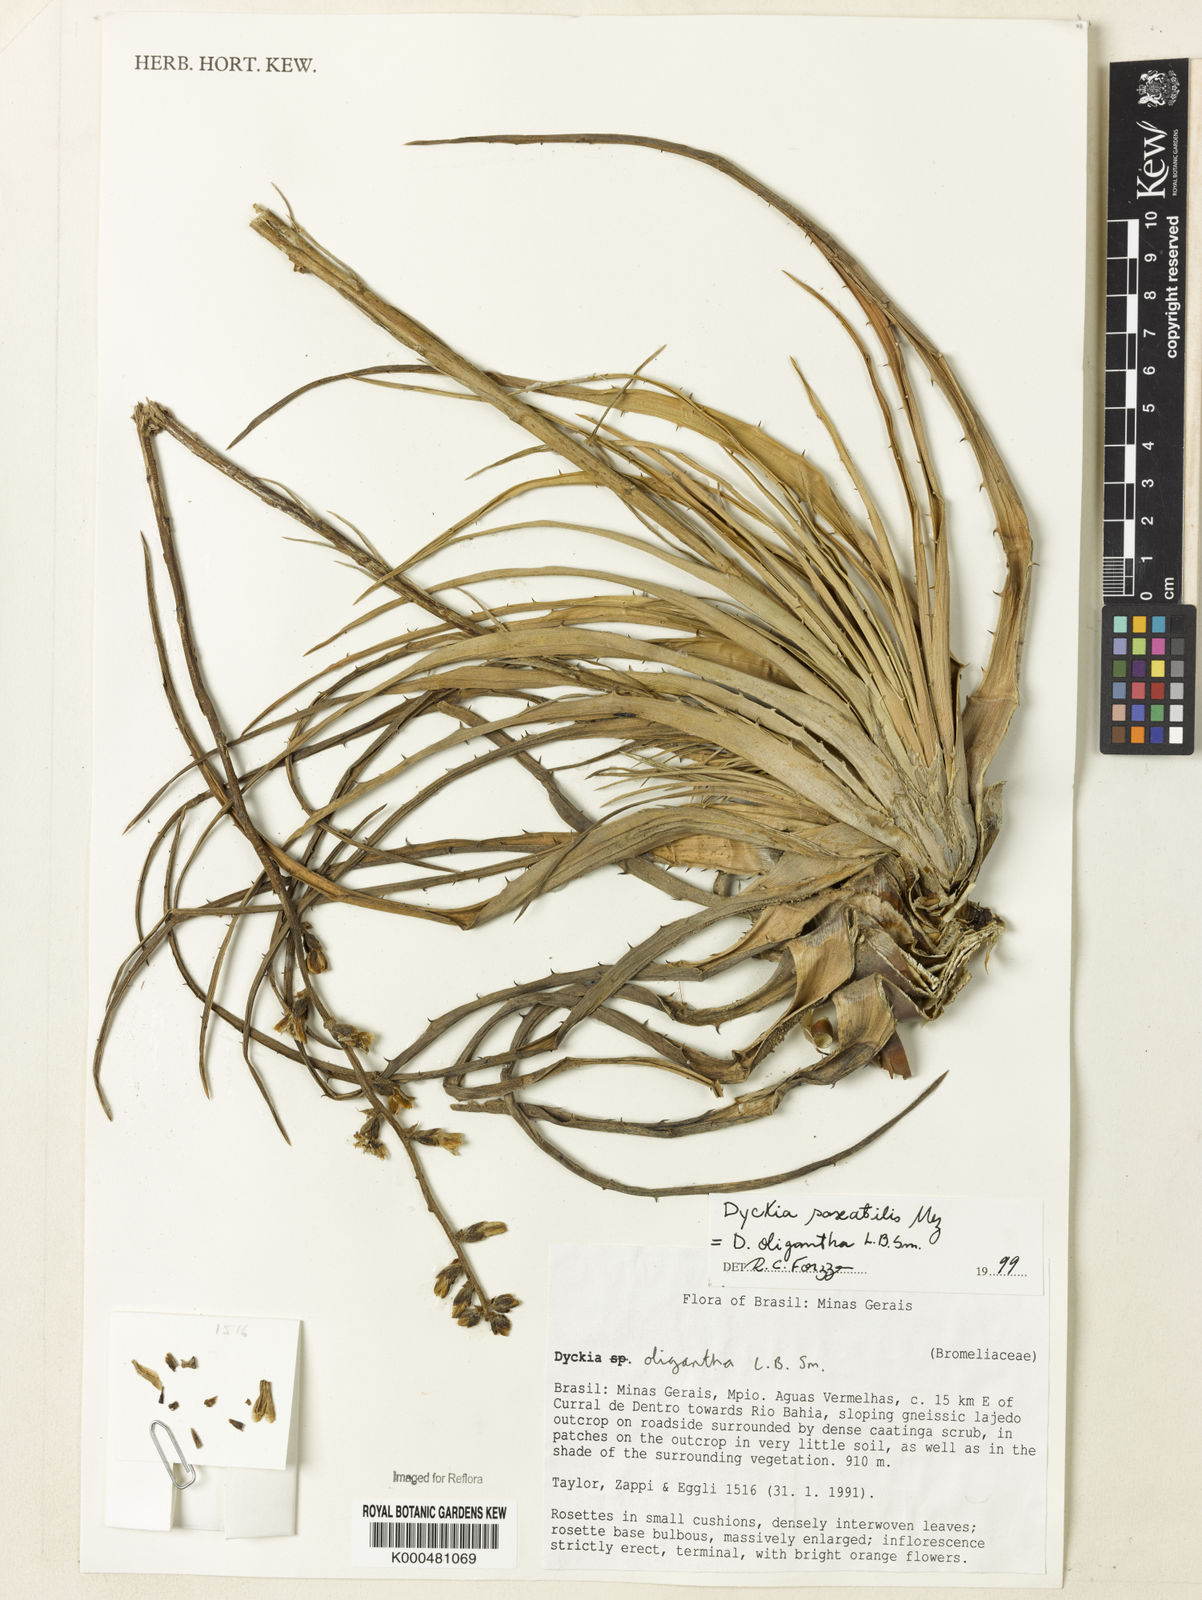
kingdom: Plantae
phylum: Tracheophyta
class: Liliopsida
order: Poales
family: Bromeliaceae
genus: Dyckia
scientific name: Dyckia saxatilis
